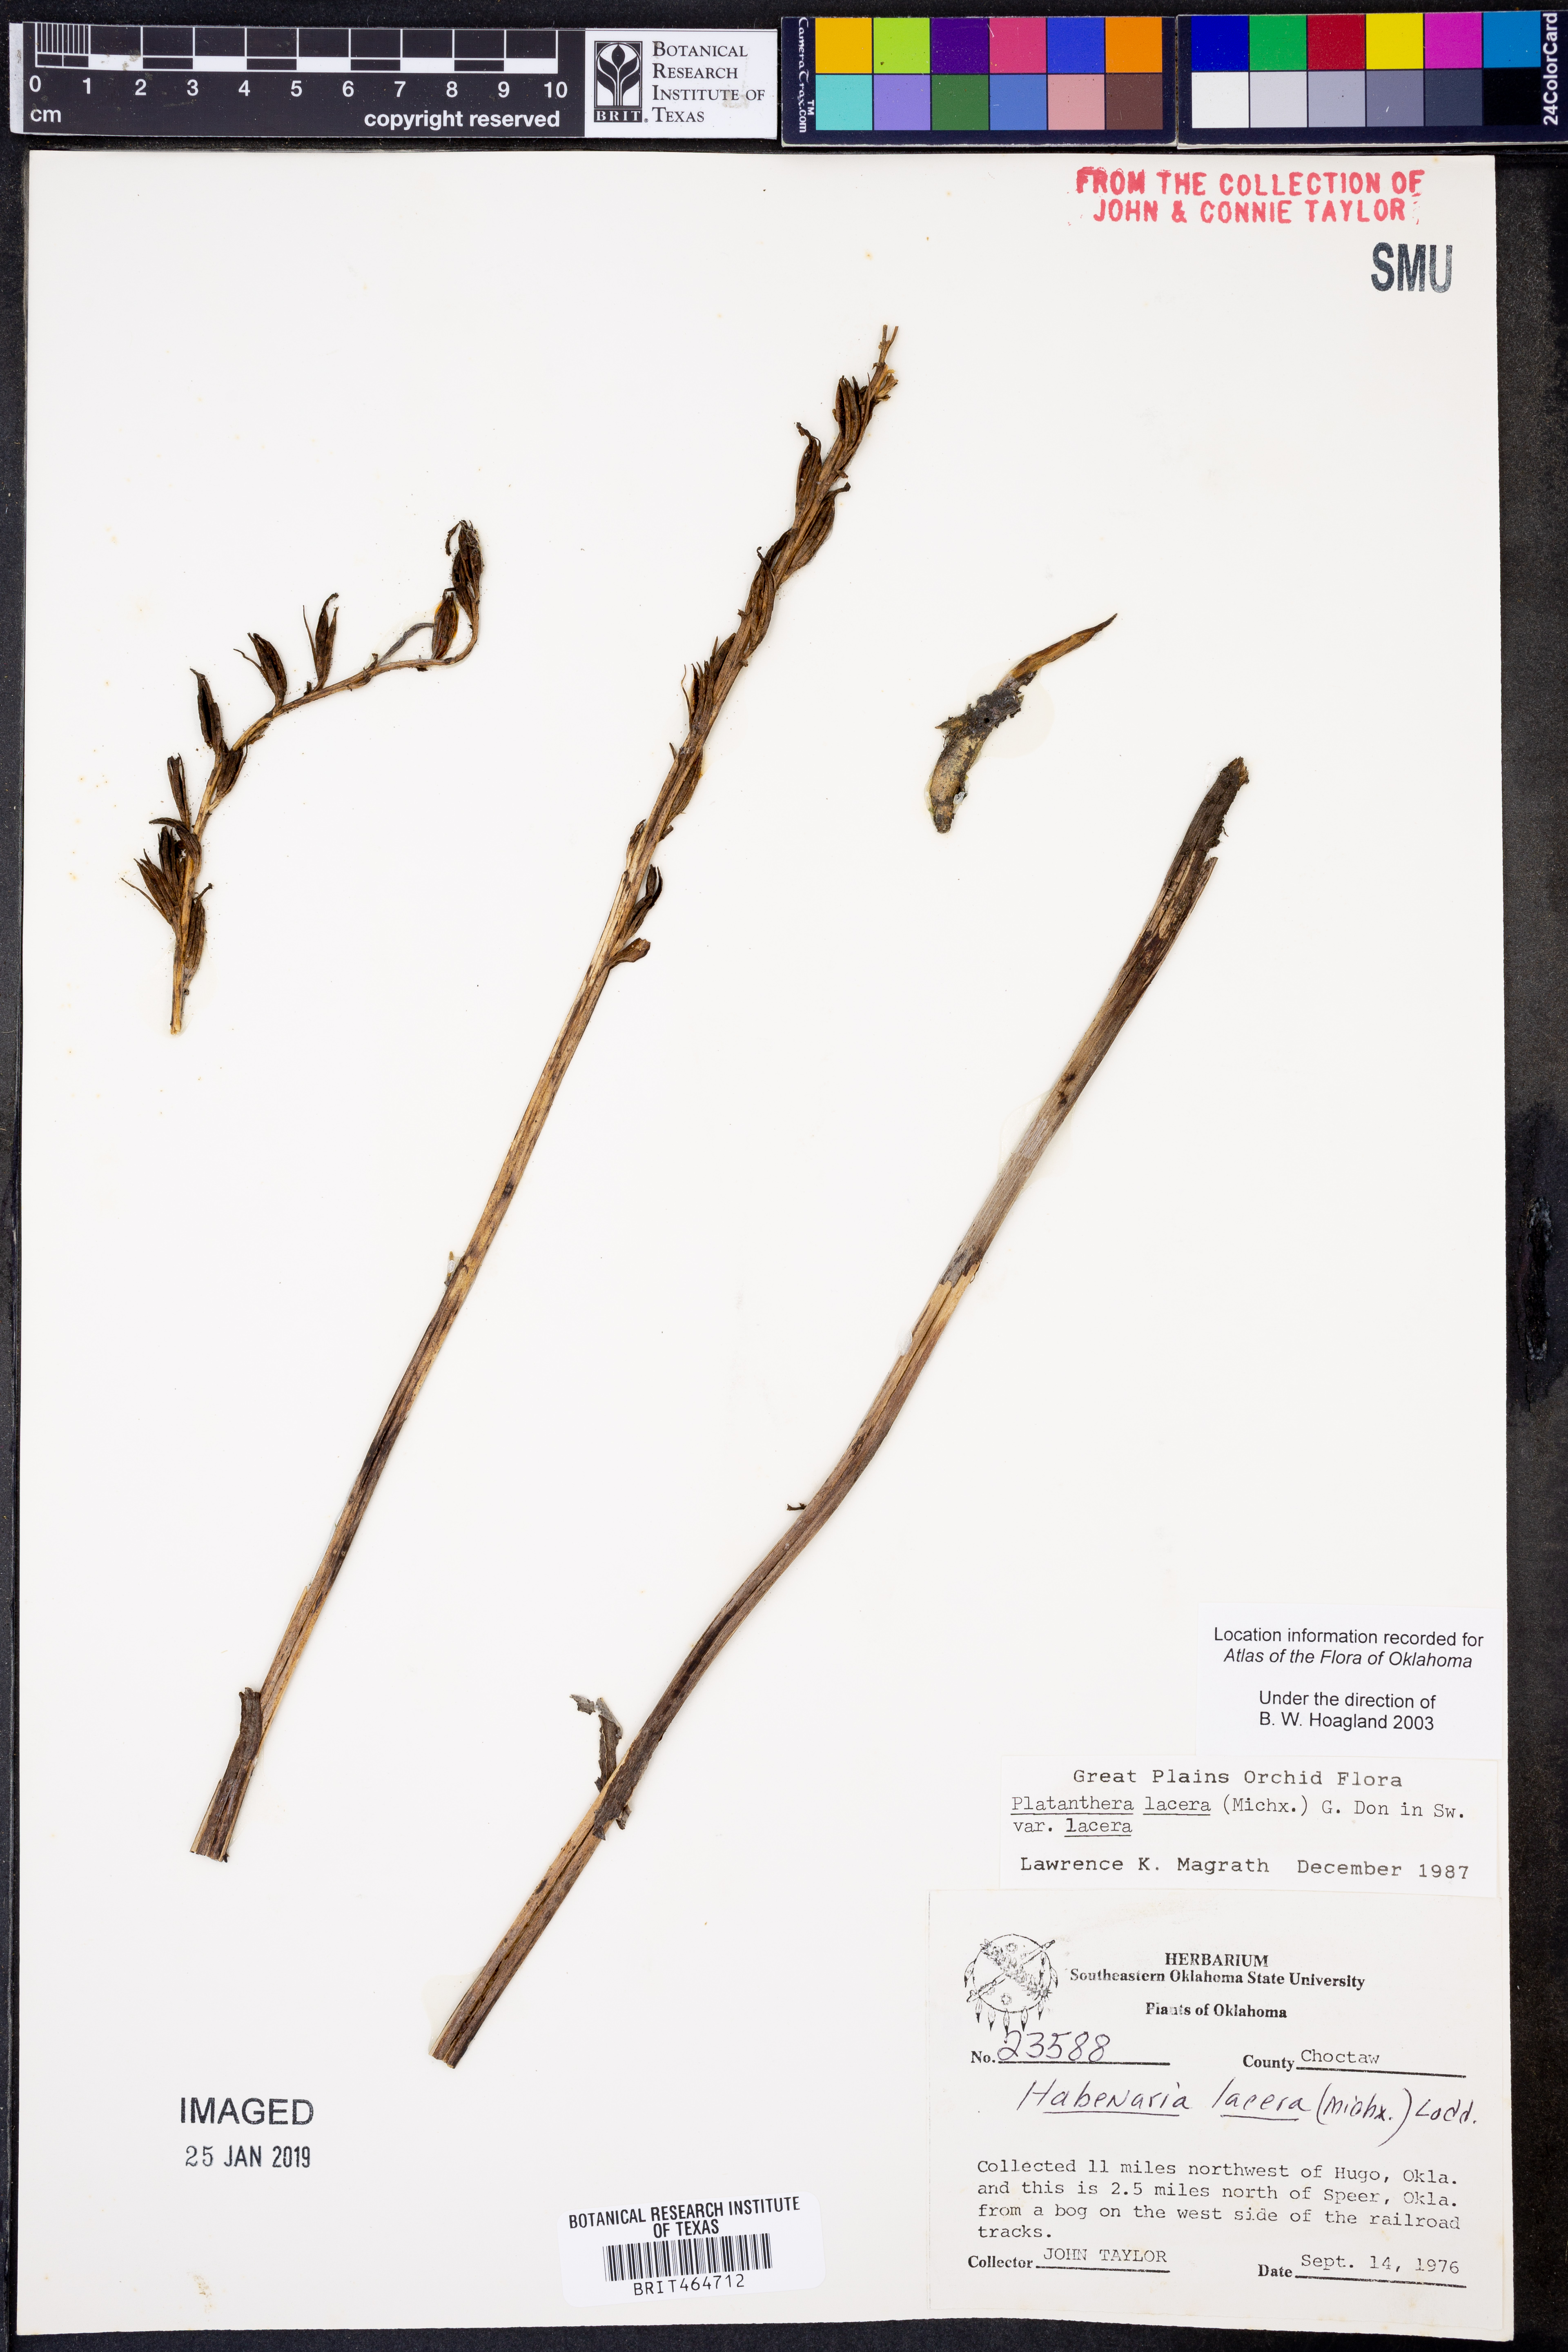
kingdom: Plantae
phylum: Tracheophyta
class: Liliopsida
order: Asparagales
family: Orchidaceae
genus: Platanthera
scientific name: Platanthera lacera
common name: Green fringed orchid
